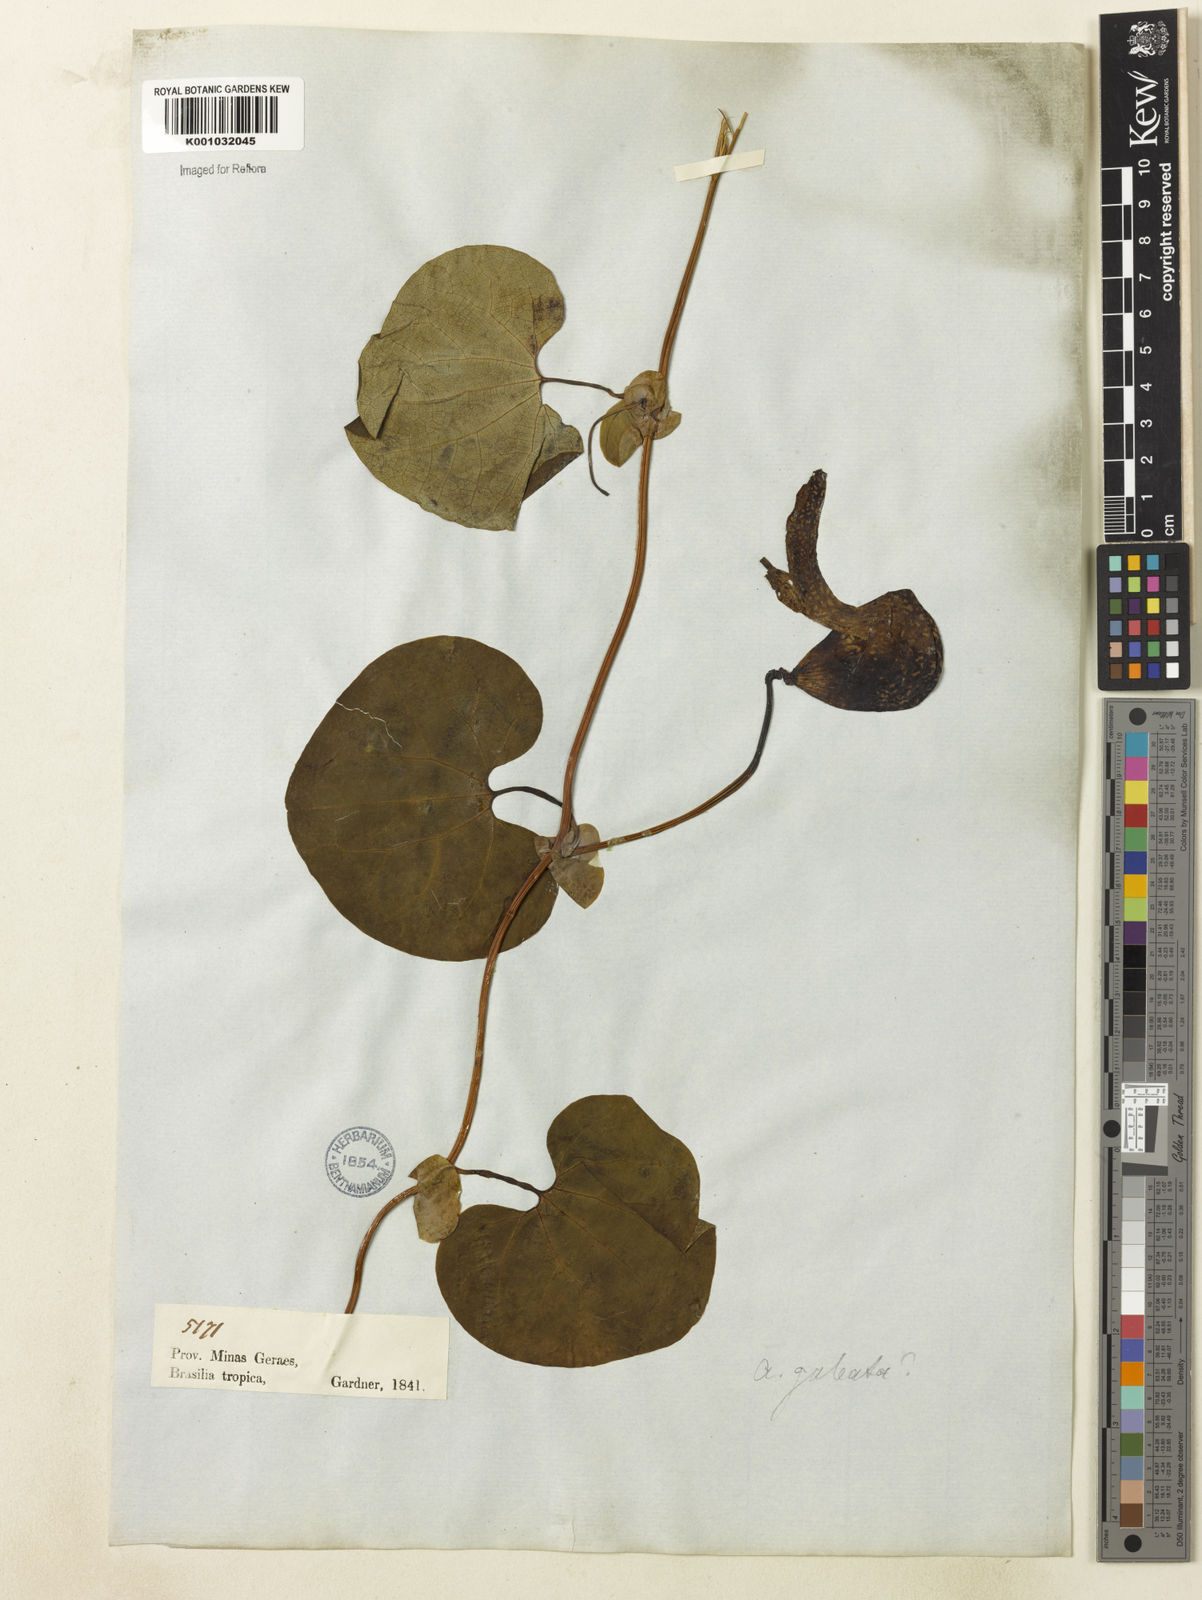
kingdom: Plantae
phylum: Tracheophyta
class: Magnoliopsida
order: Piperales
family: Aristolochiaceae
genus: Aristolochia
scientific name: Aristolochia
